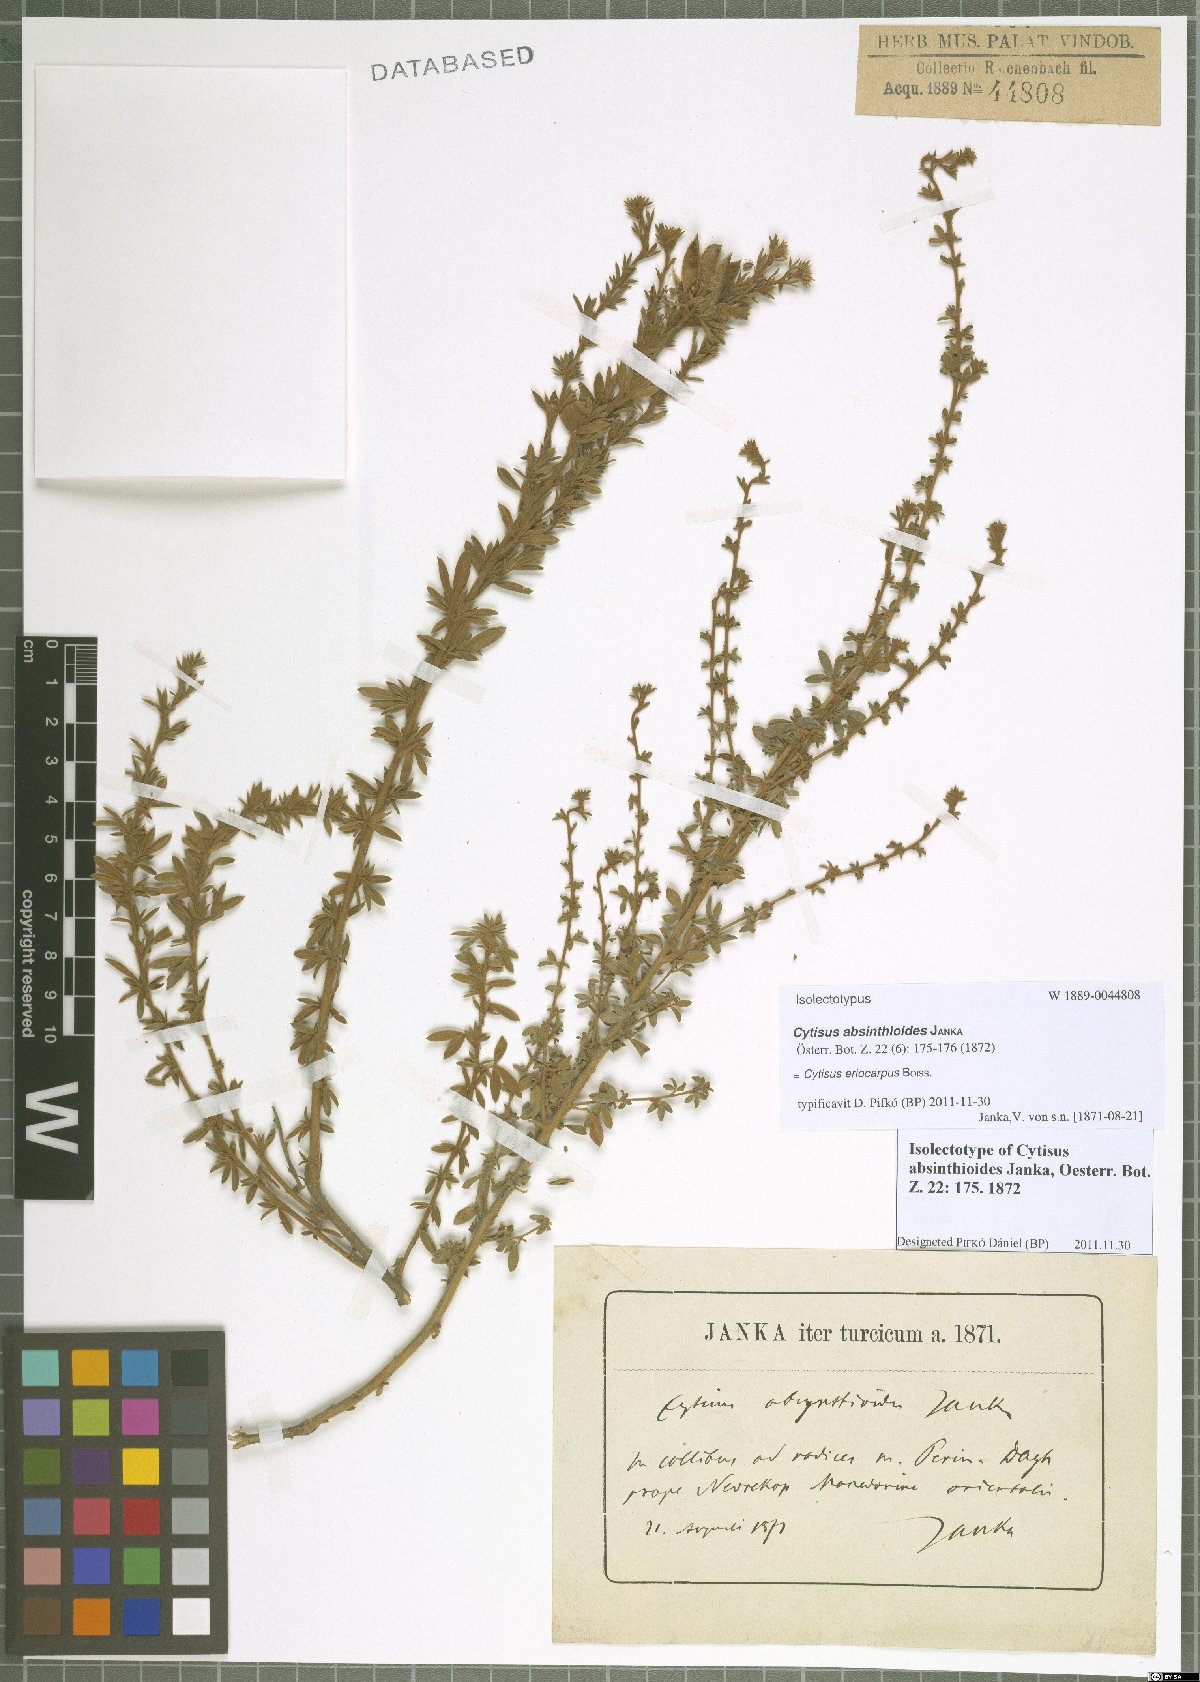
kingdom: Plantae
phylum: Tracheophyta
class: Magnoliopsida
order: Fabales
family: Fabaceae
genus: Chamaecytisus
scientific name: Chamaecytisus eriocarpus
